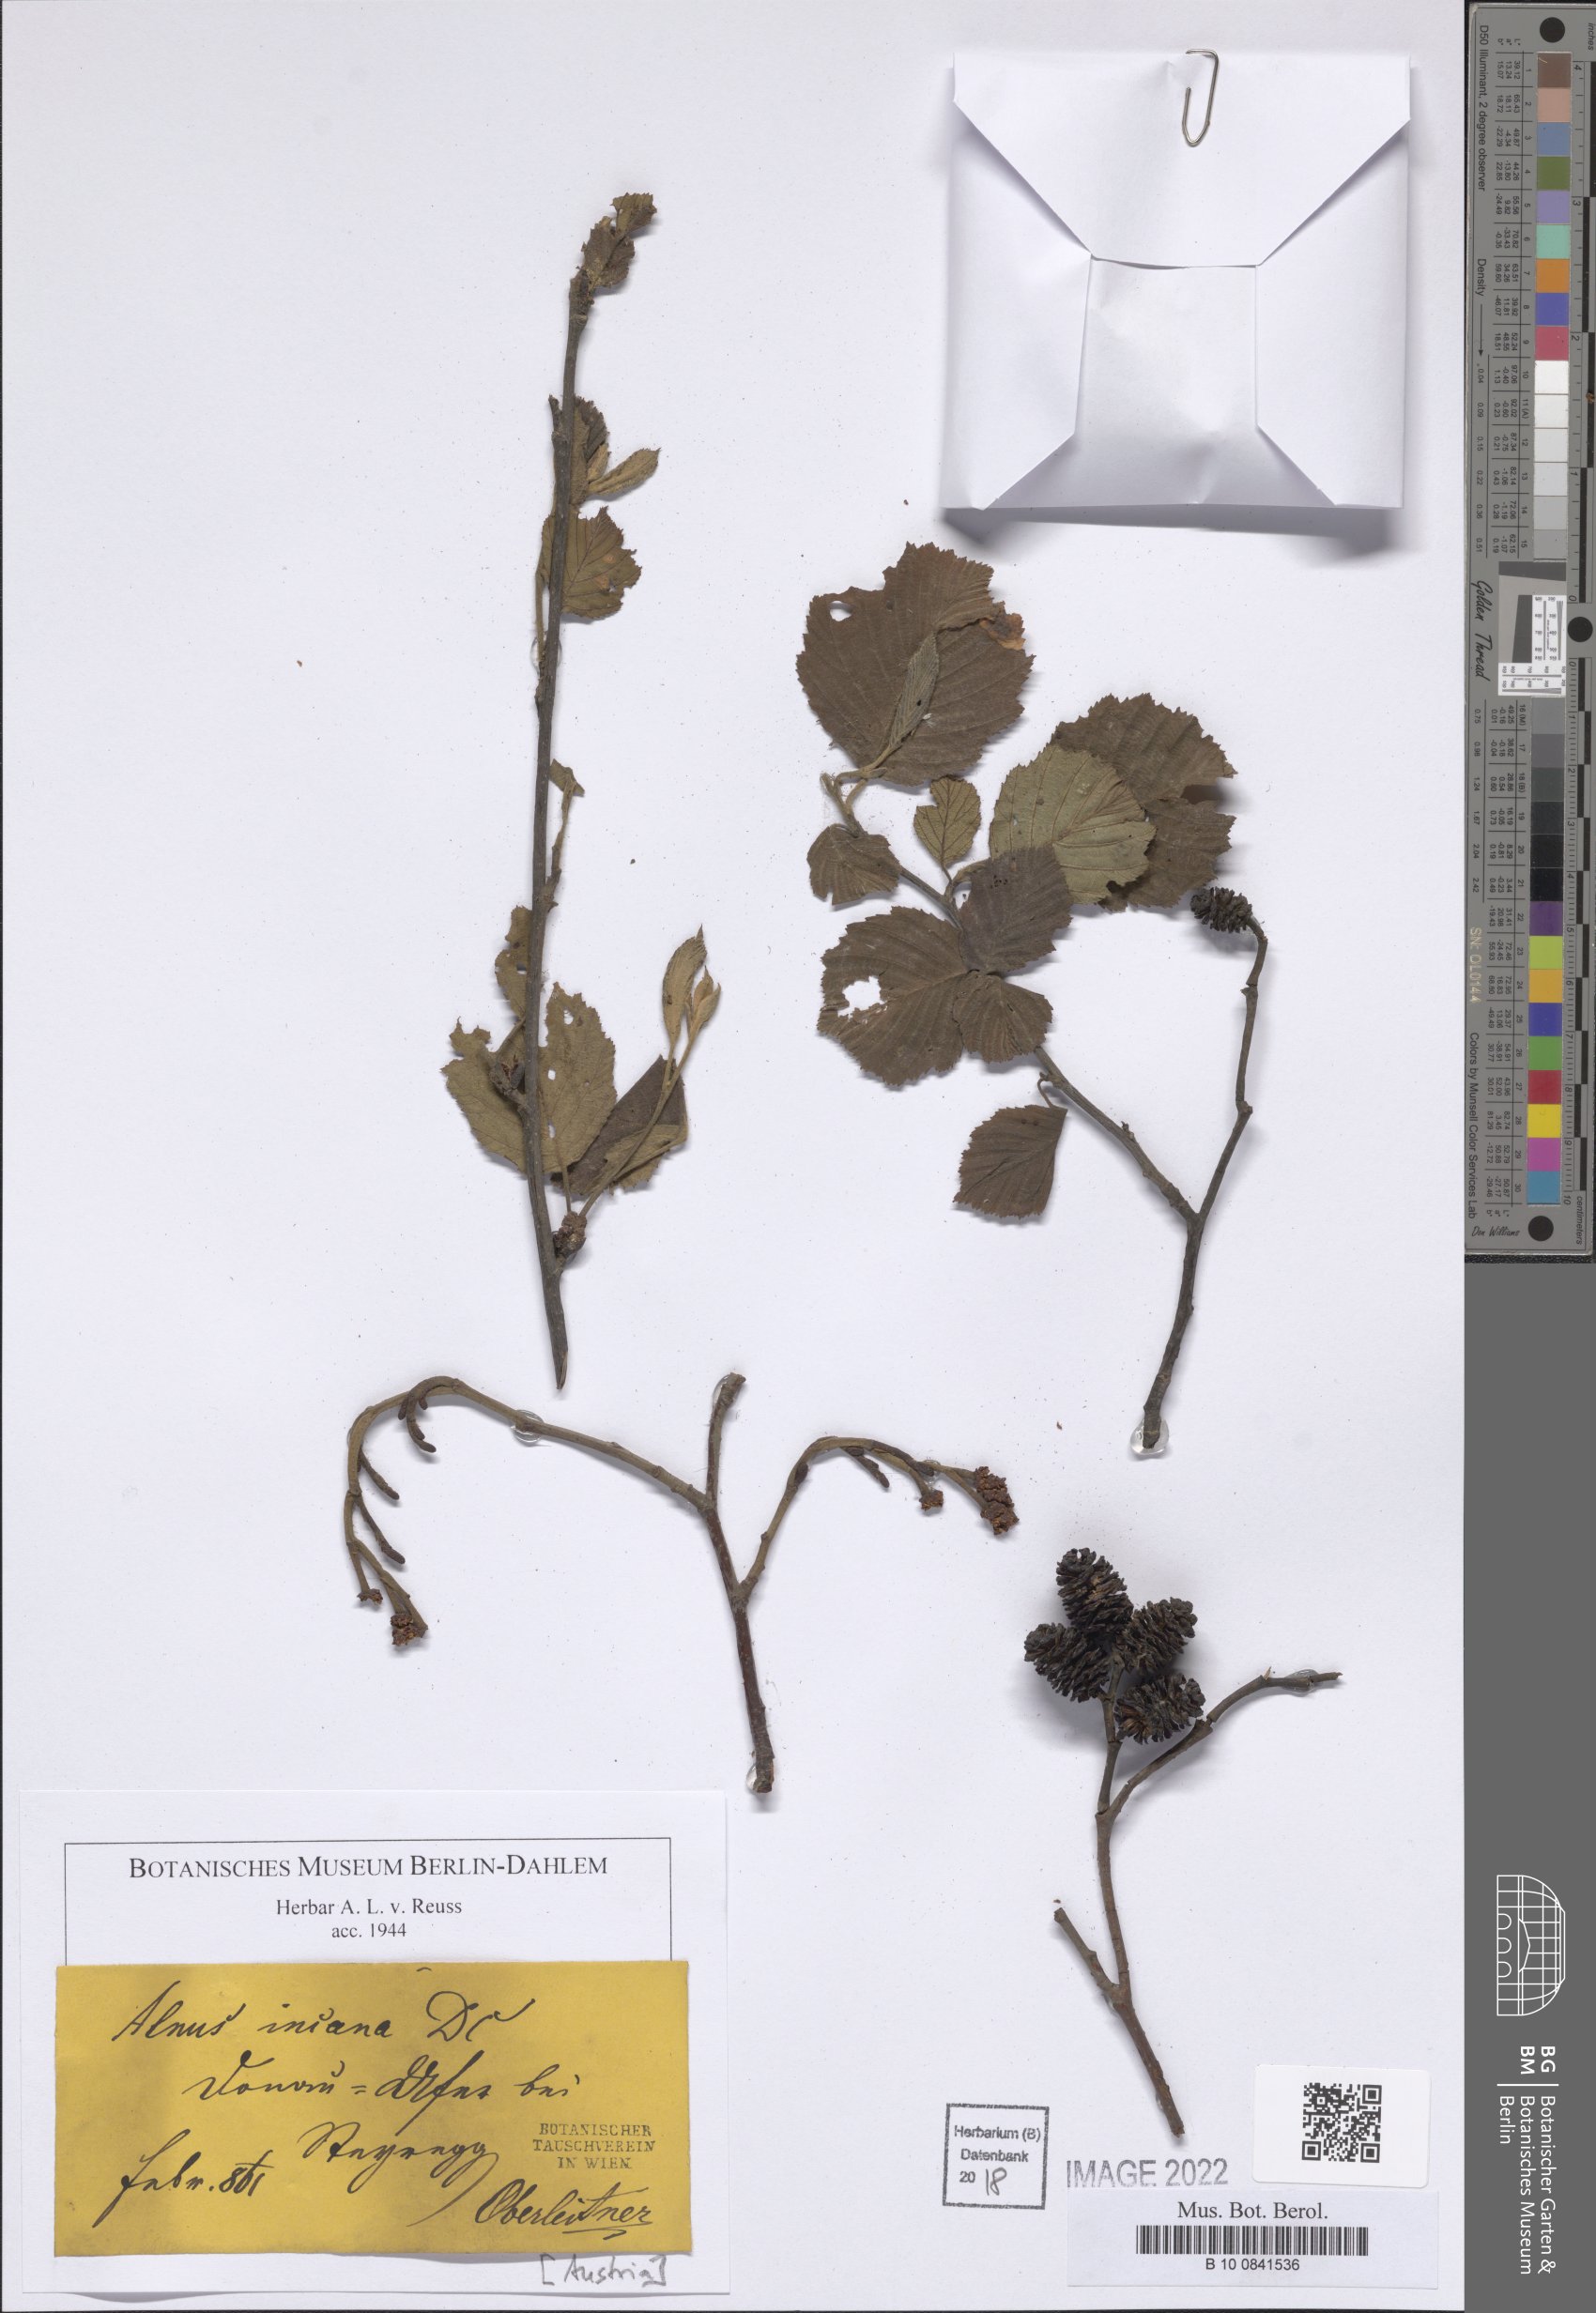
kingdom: Plantae
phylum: Tracheophyta
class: Magnoliopsida
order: Fagales
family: Betulaceae
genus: Alnus
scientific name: Alnus incana
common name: Grey alder
